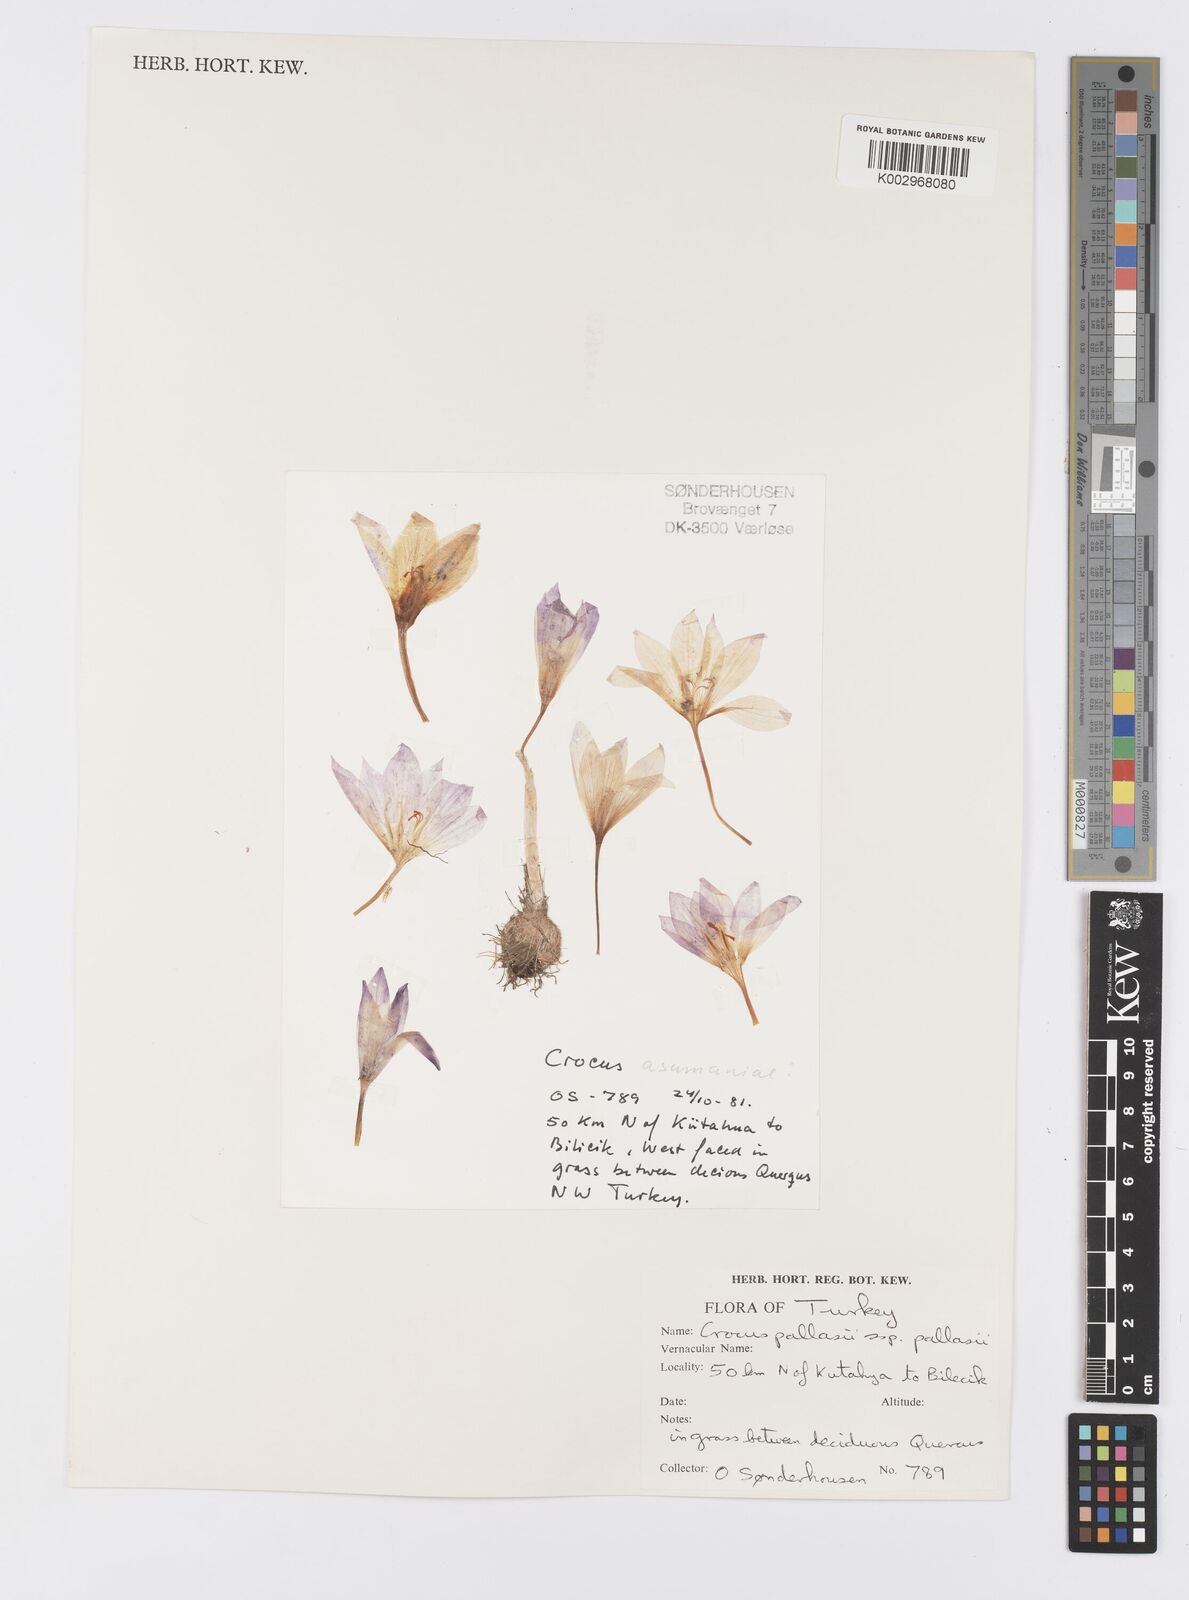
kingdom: Plantae
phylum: Tracheophyta
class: Liliopsida
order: Asparagales
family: Iridaceae
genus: Crocus
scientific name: Crocus pallasii
